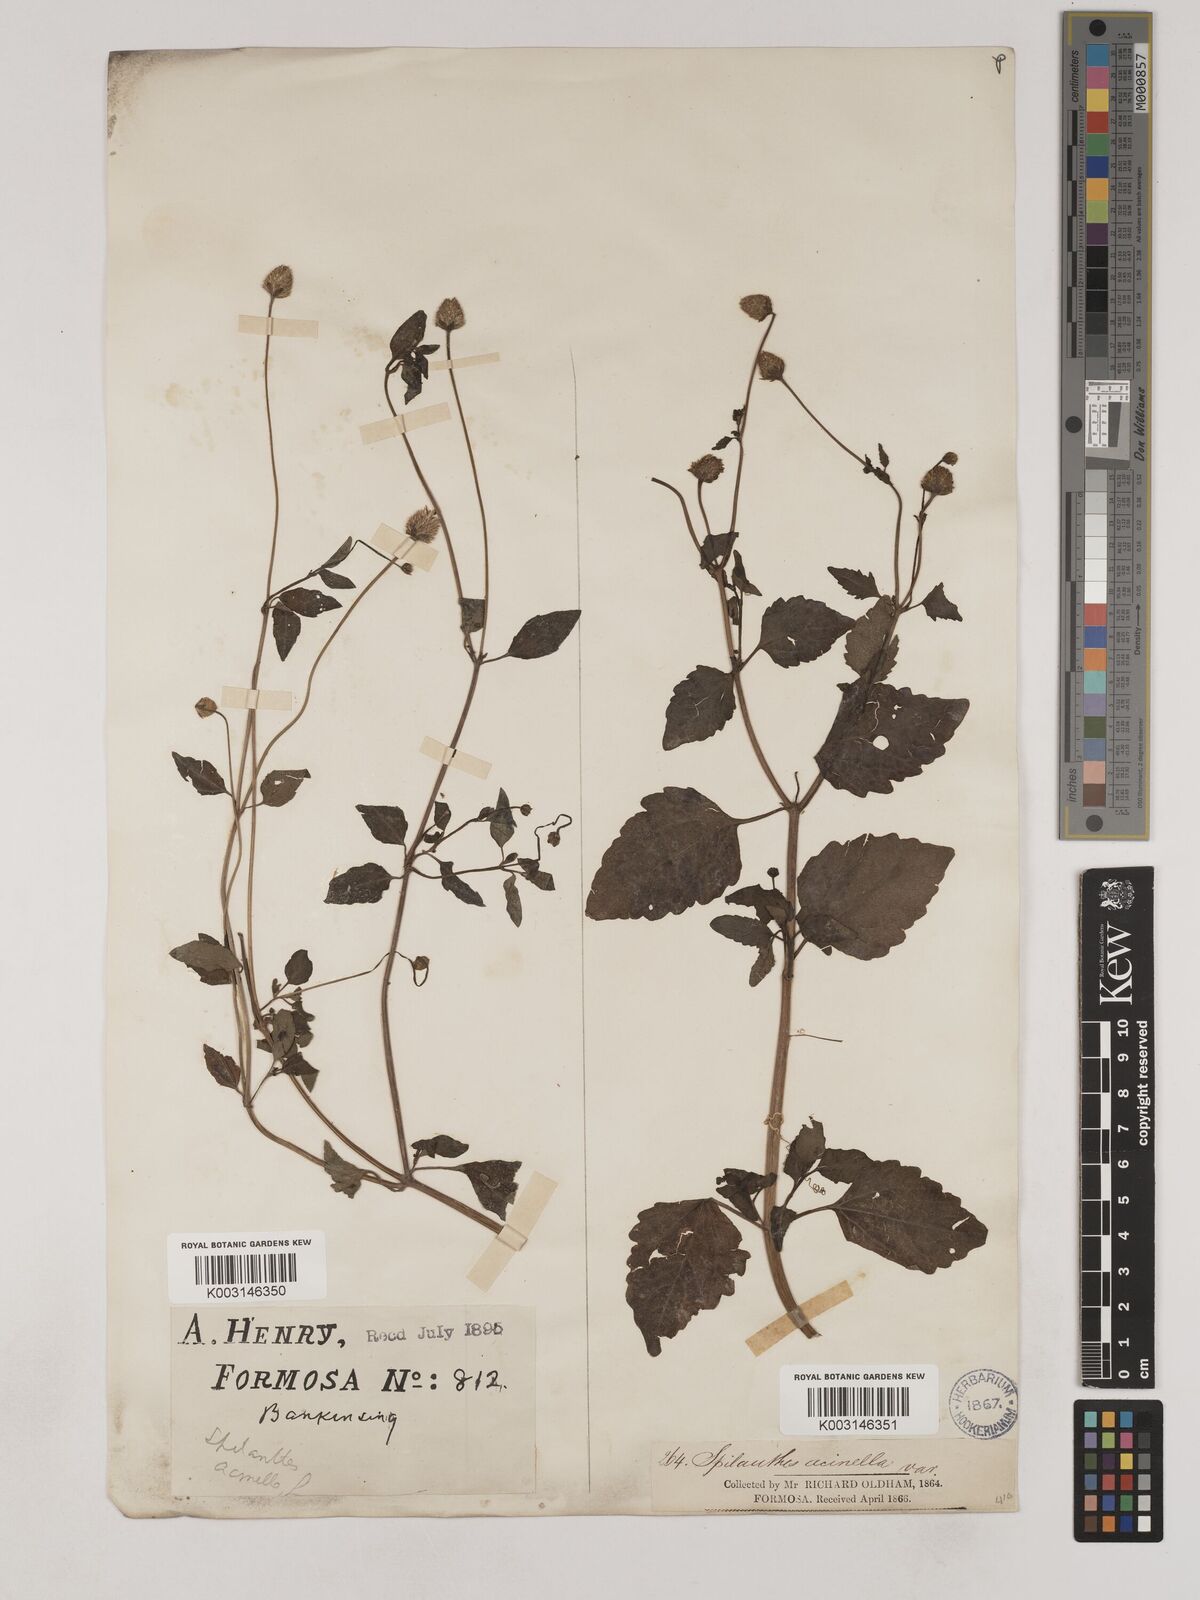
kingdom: Plantae
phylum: Tracheophyta
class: Magnoliopsida
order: Asterales
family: Asteraceae
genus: Acmella
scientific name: Acmella paniculata
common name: Panicled spot flower
